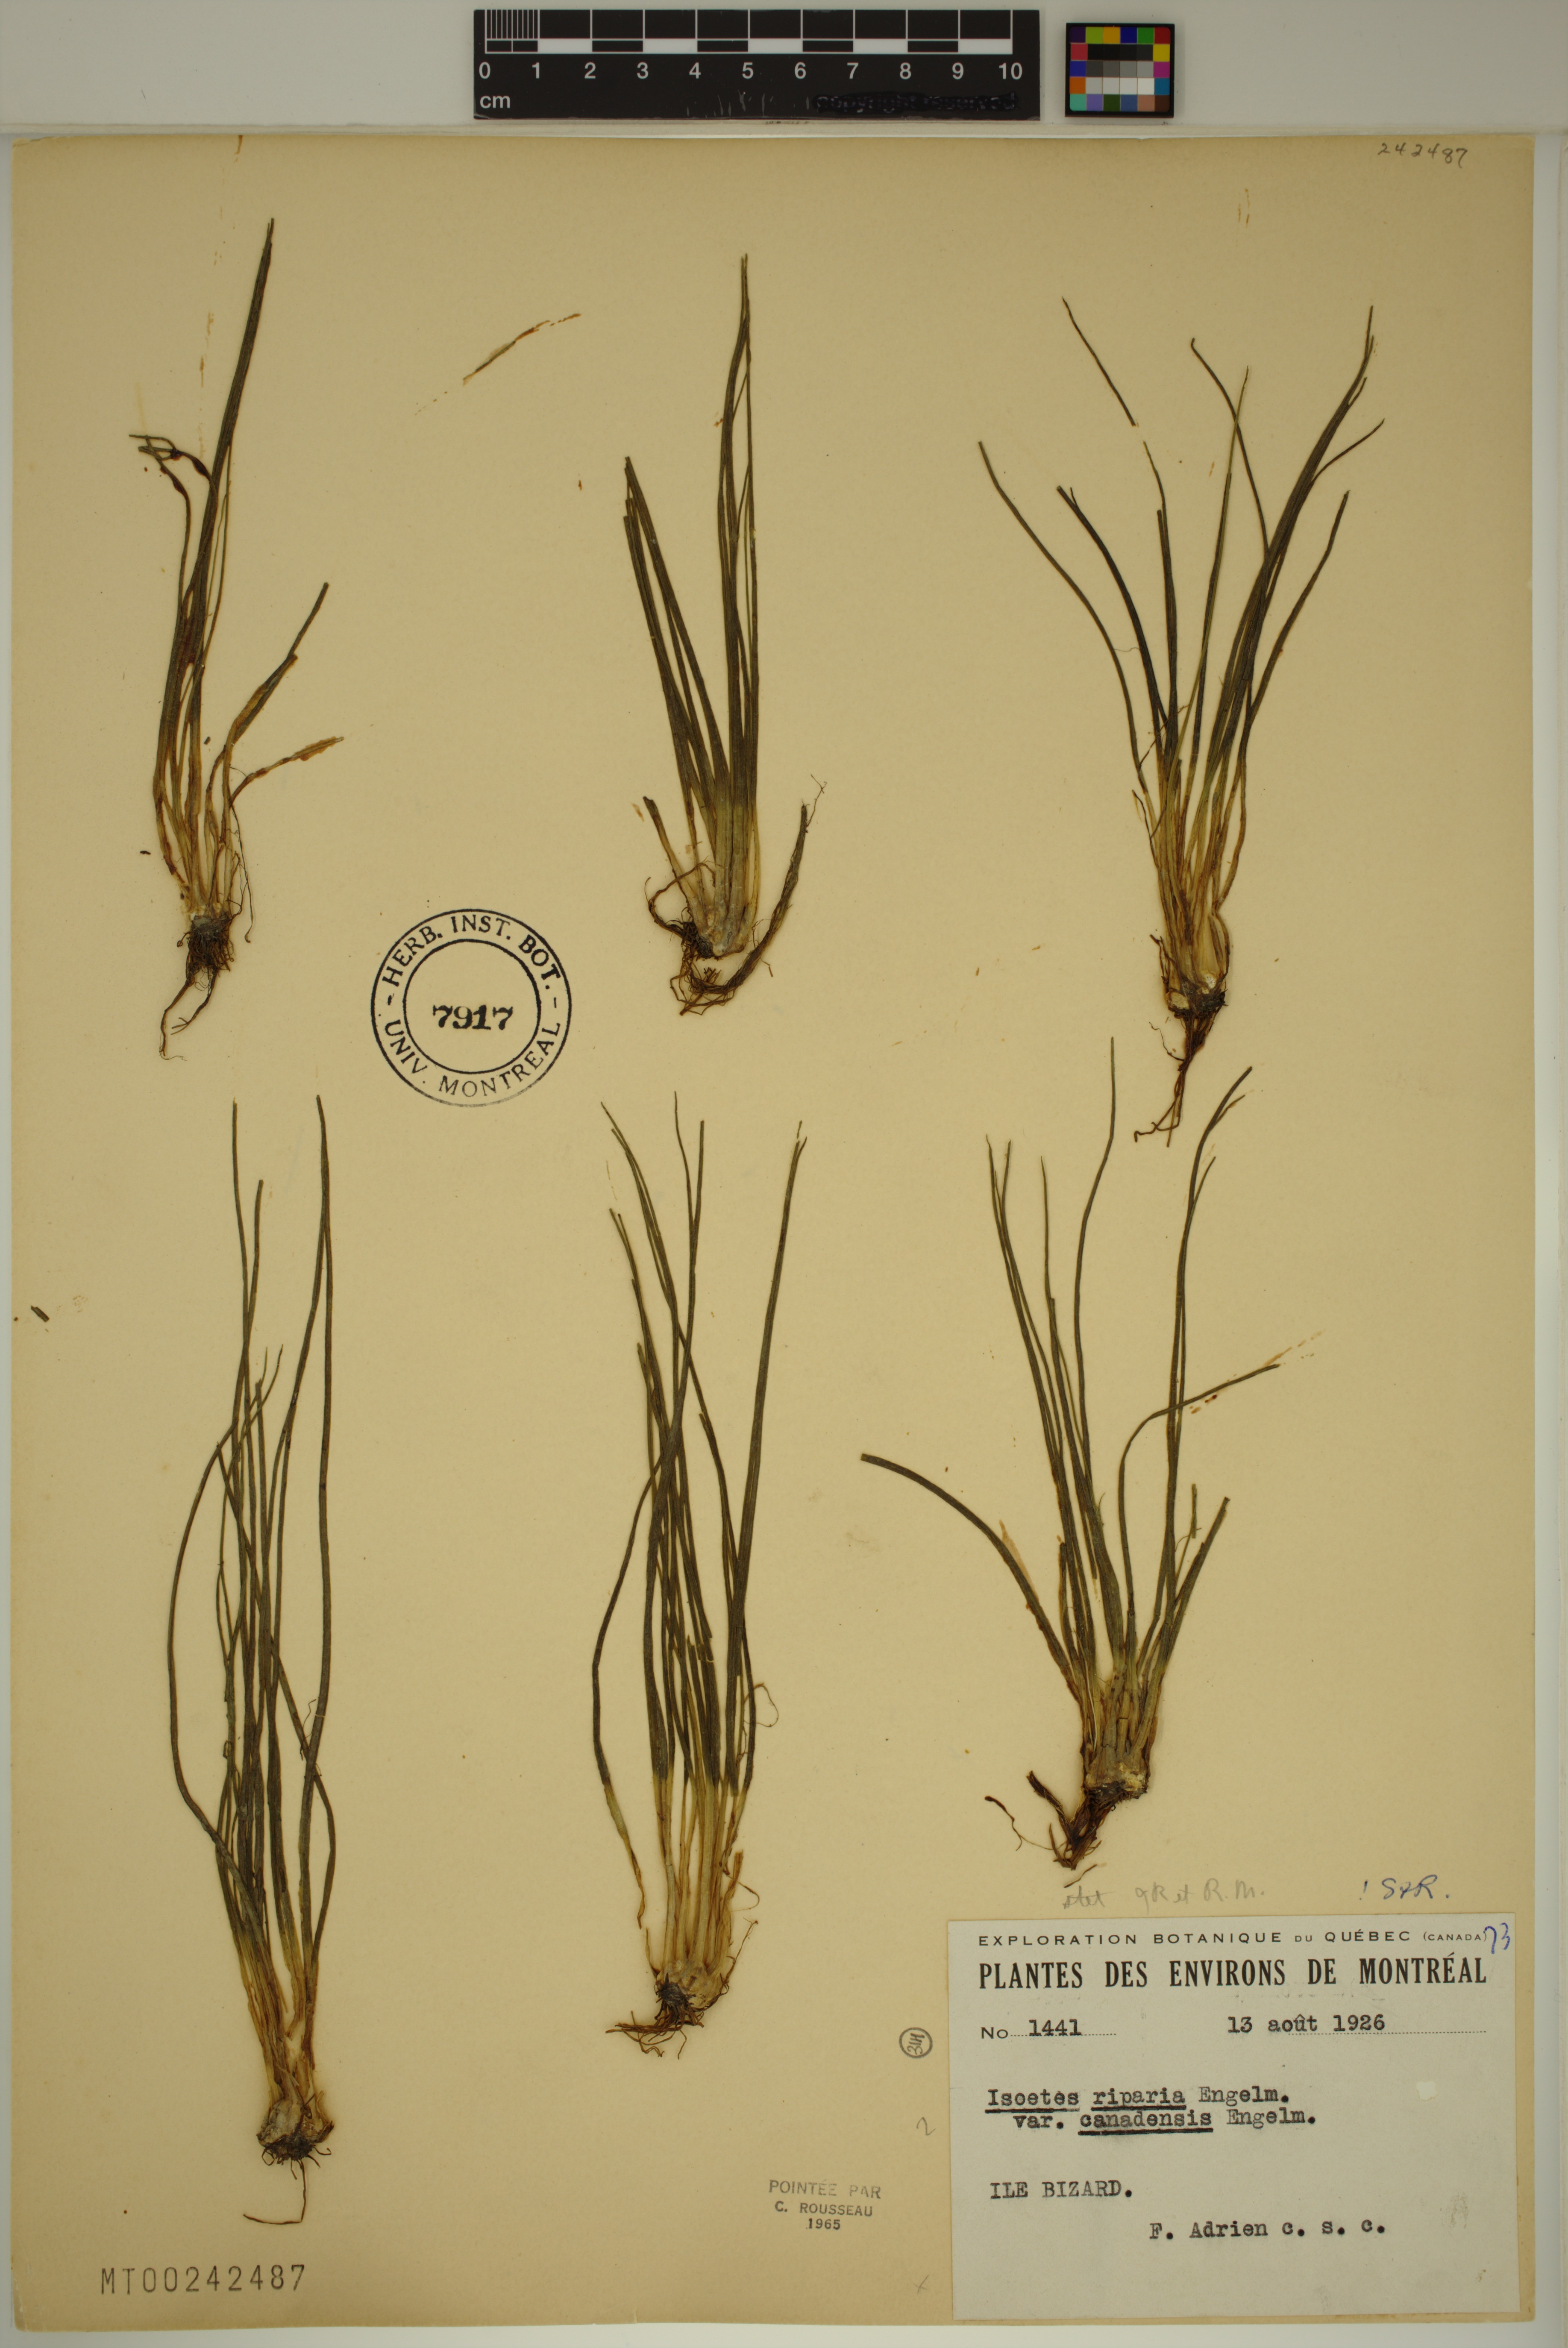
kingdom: Plantae
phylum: Tracheophyta
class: Lycopodiopsida
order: Isoetales
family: Isoetaceae
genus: Isoetes
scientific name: Isoetes septentrionalis
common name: Northern quillwort
